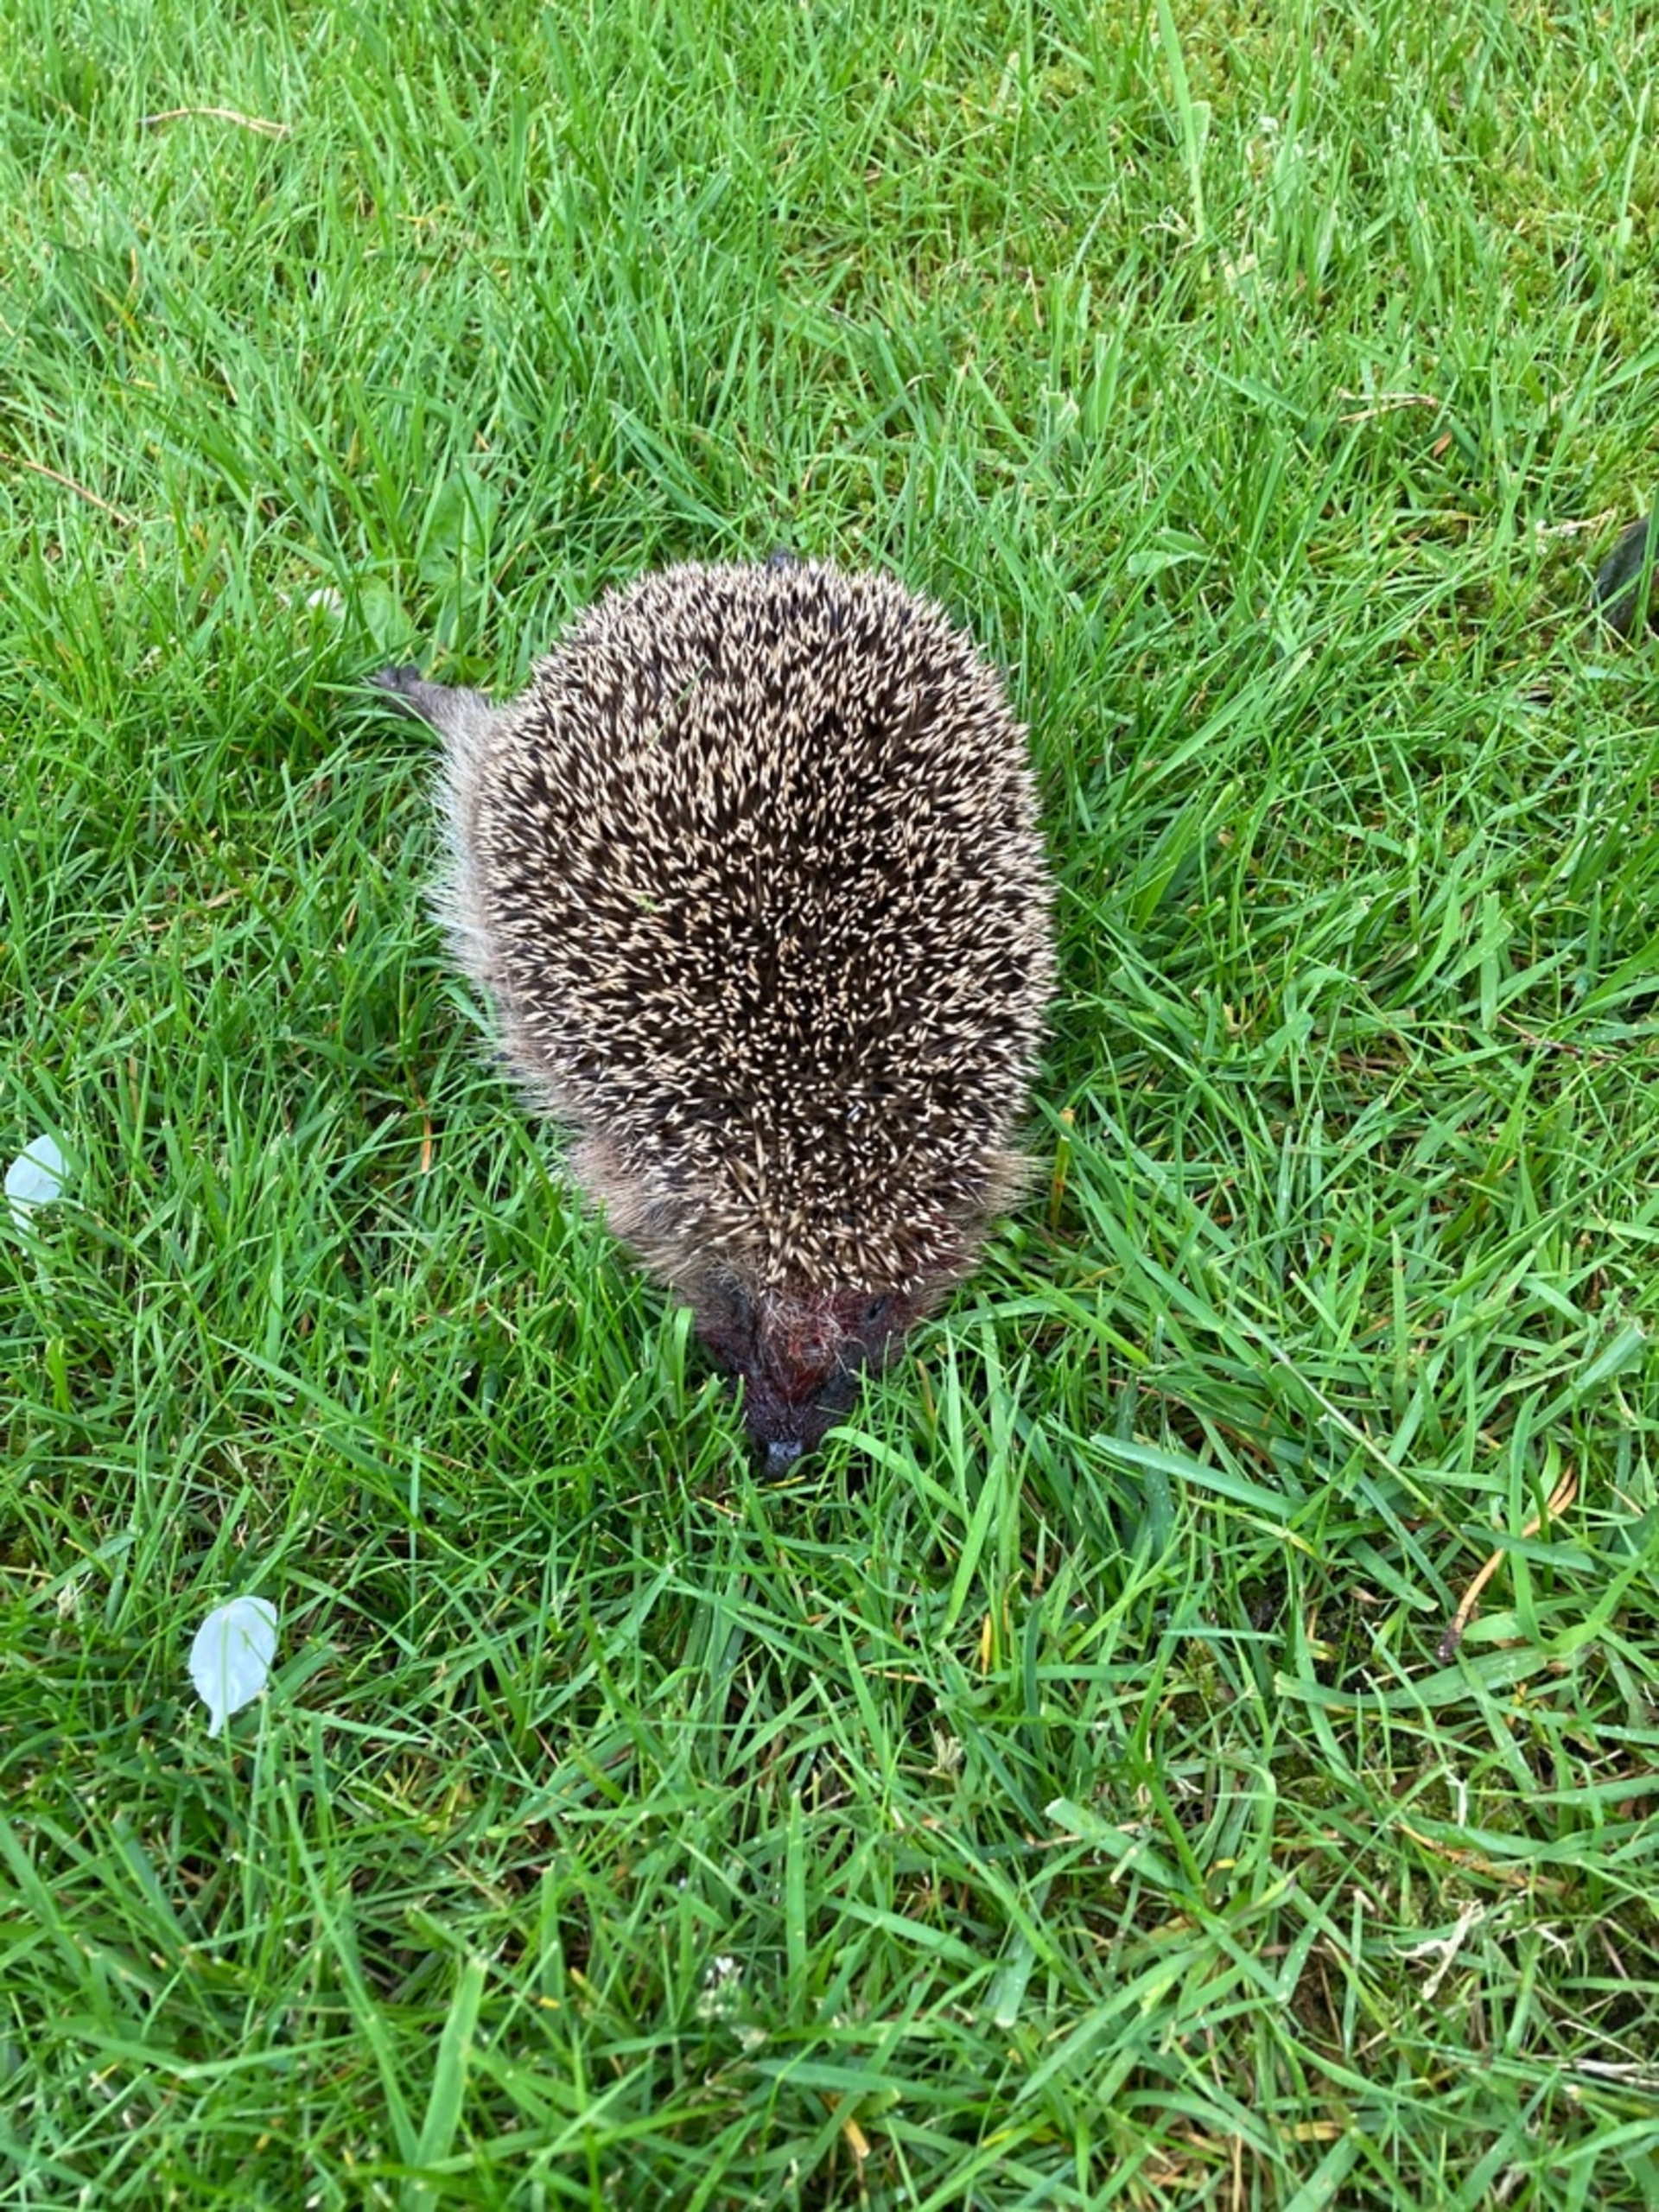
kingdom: Animalia
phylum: Chordata
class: Mammalia
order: Erinaceomorpha
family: Erinaceidae
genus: Erinaceus
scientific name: Erinaceus europaeus
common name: Pindsvin
